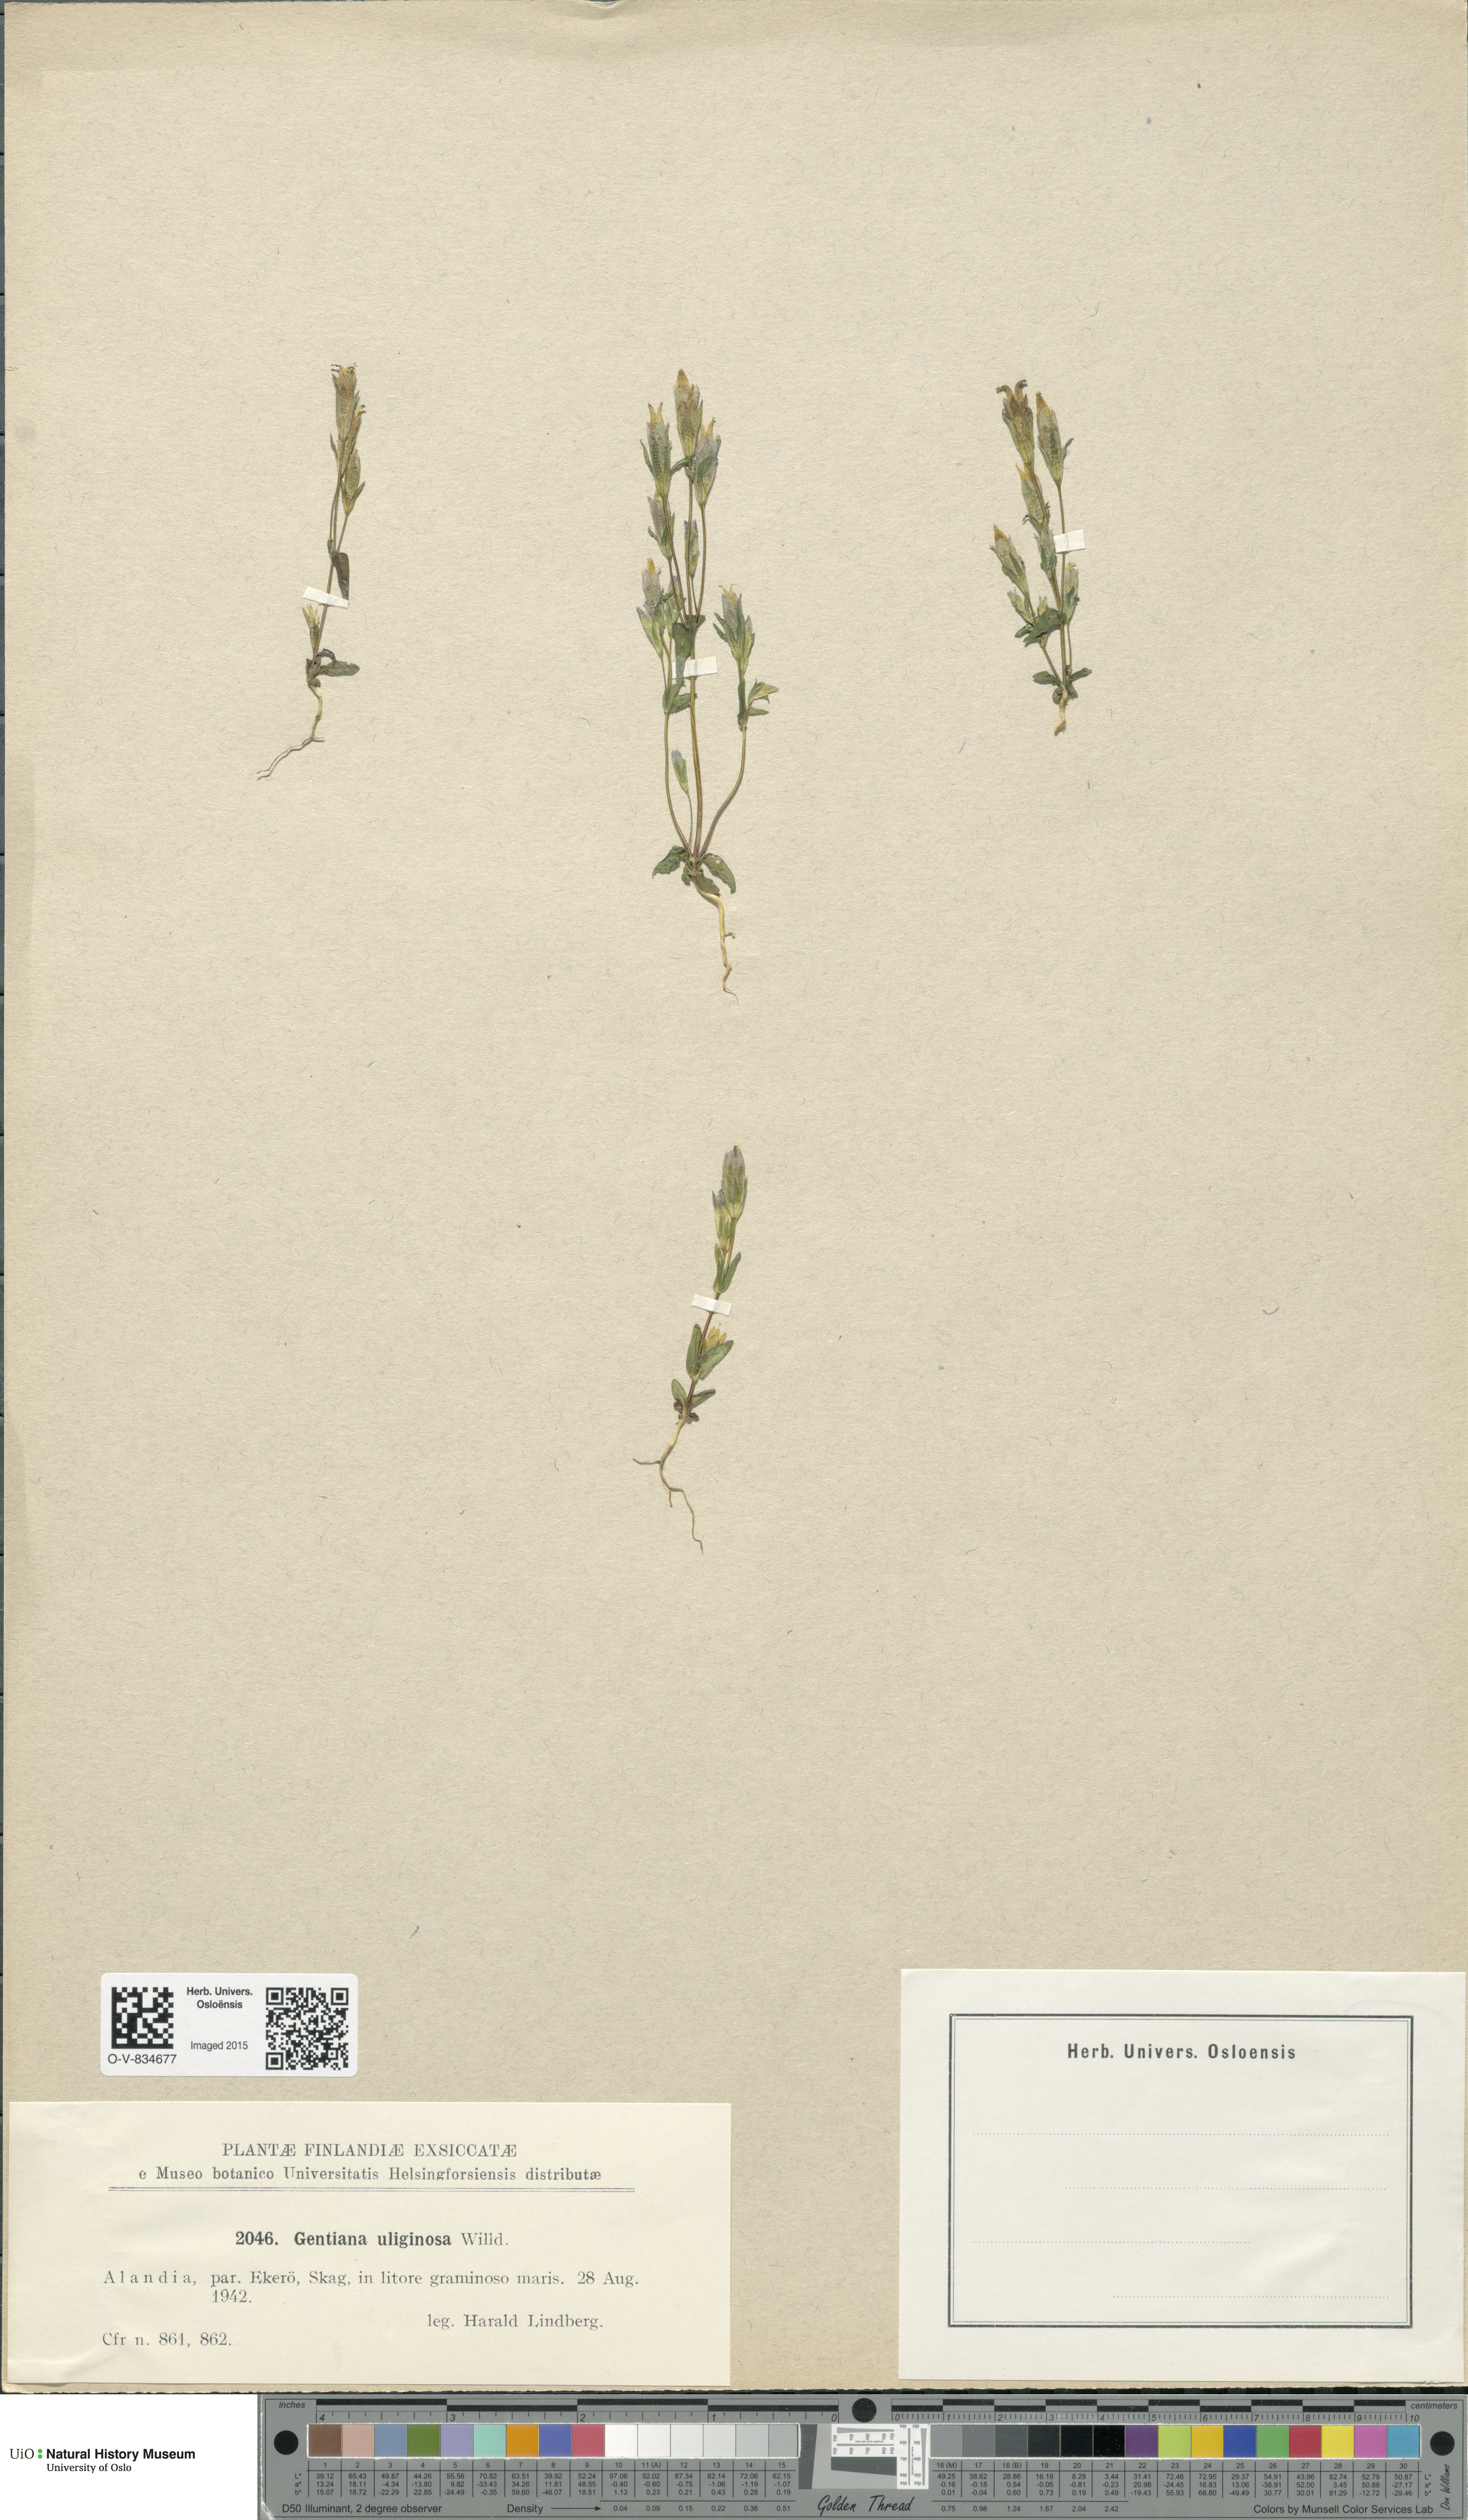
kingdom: Plantae
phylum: Tracheophyta
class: Magnoliopsida
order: Gentianales
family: Gentianaceae
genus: Gentianella
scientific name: Gentianella uliginosa
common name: Dune gentian
